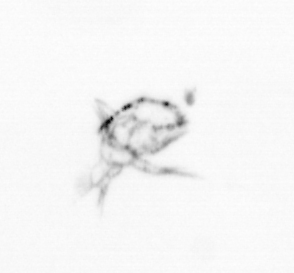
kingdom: Animalia
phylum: Arthropoda
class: Copepoda
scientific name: Copepoda
